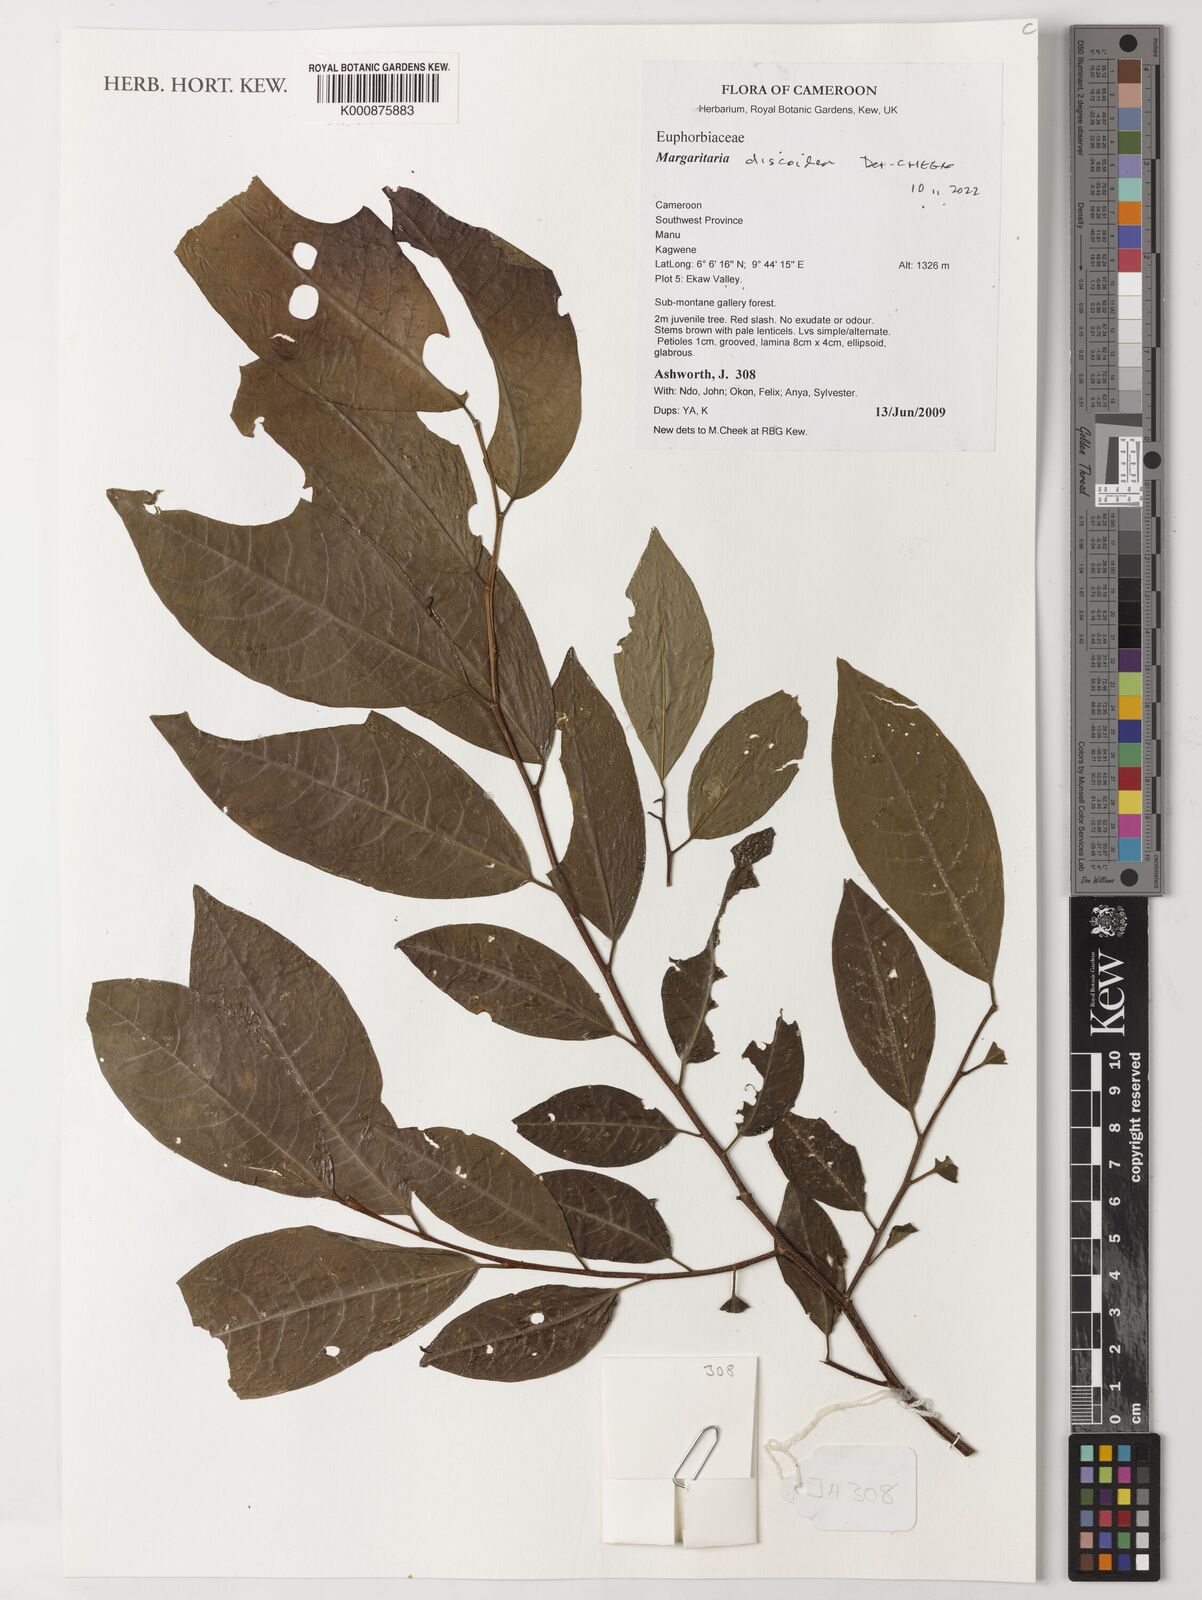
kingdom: Plantae
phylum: Tracheophyta
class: Magnoliopsida
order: Malpighiales
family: Phyllanthaceae
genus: Margaritaria
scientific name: Margaritaria discoidea
